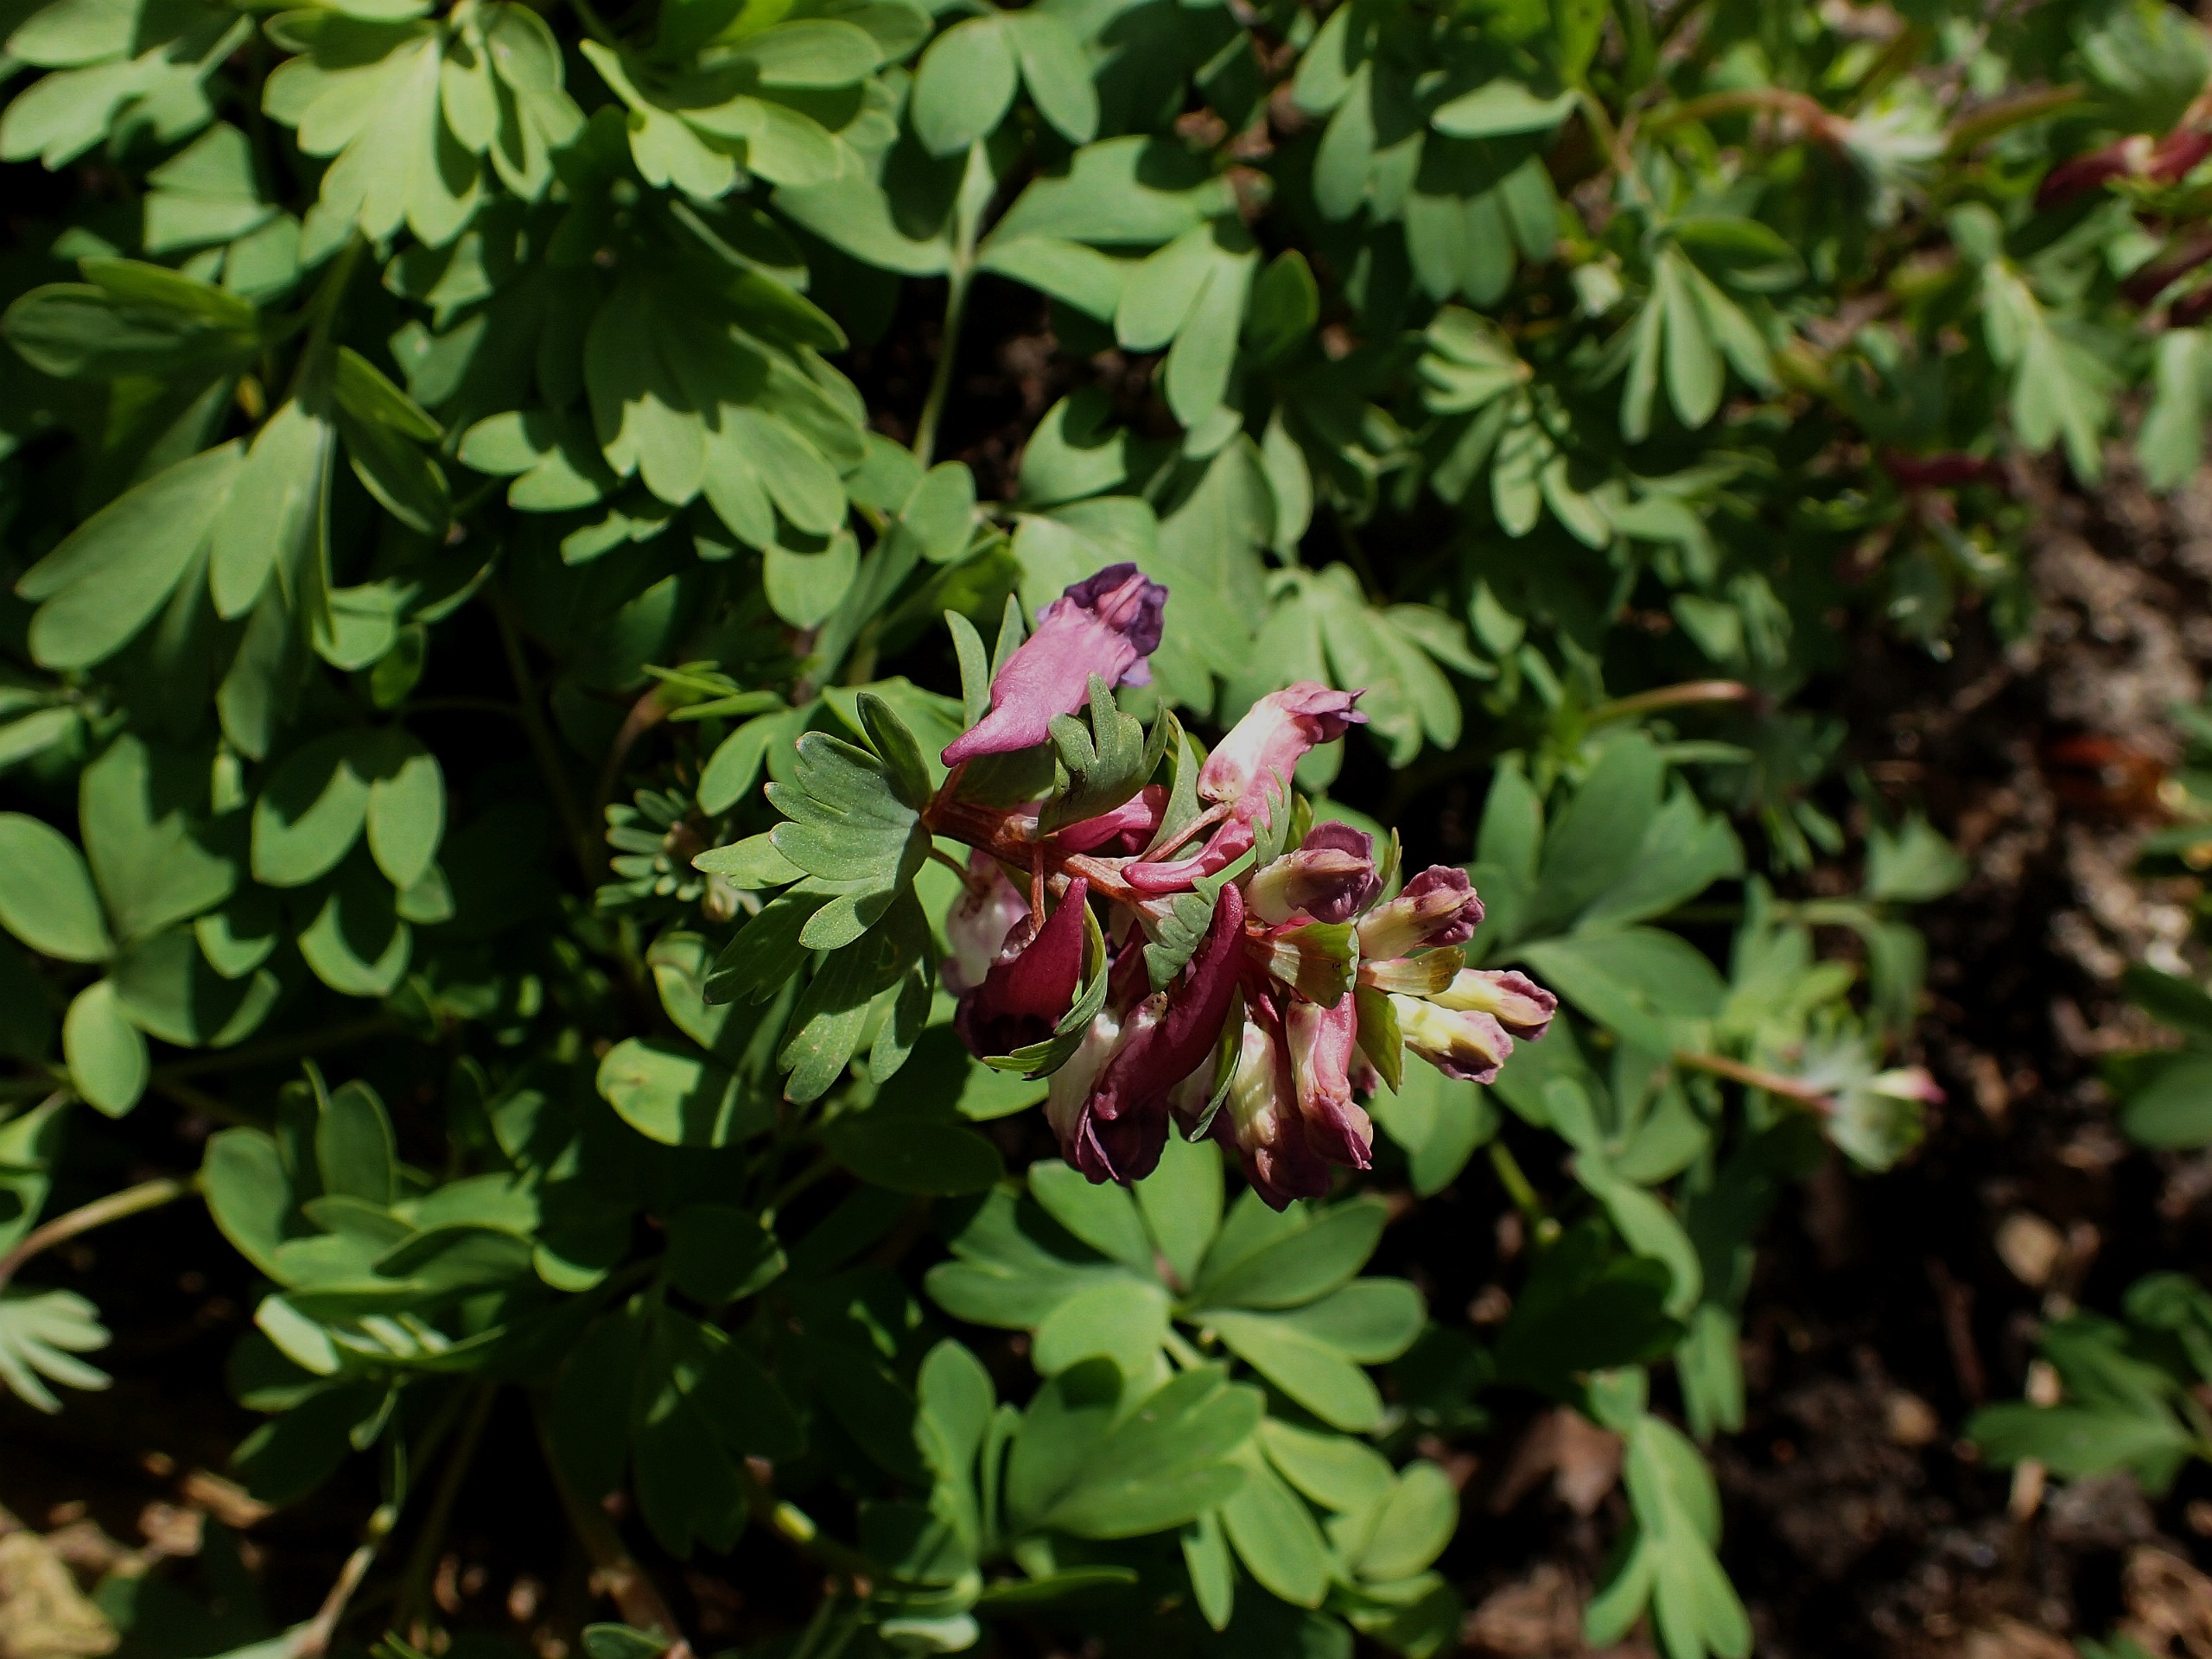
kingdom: Plantae
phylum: Tracheophyta
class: Magnoliopsida
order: Ranunculales
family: Papaveraceae
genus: Corydalis
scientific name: Corydalis solida
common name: Langstilket lærkespore
